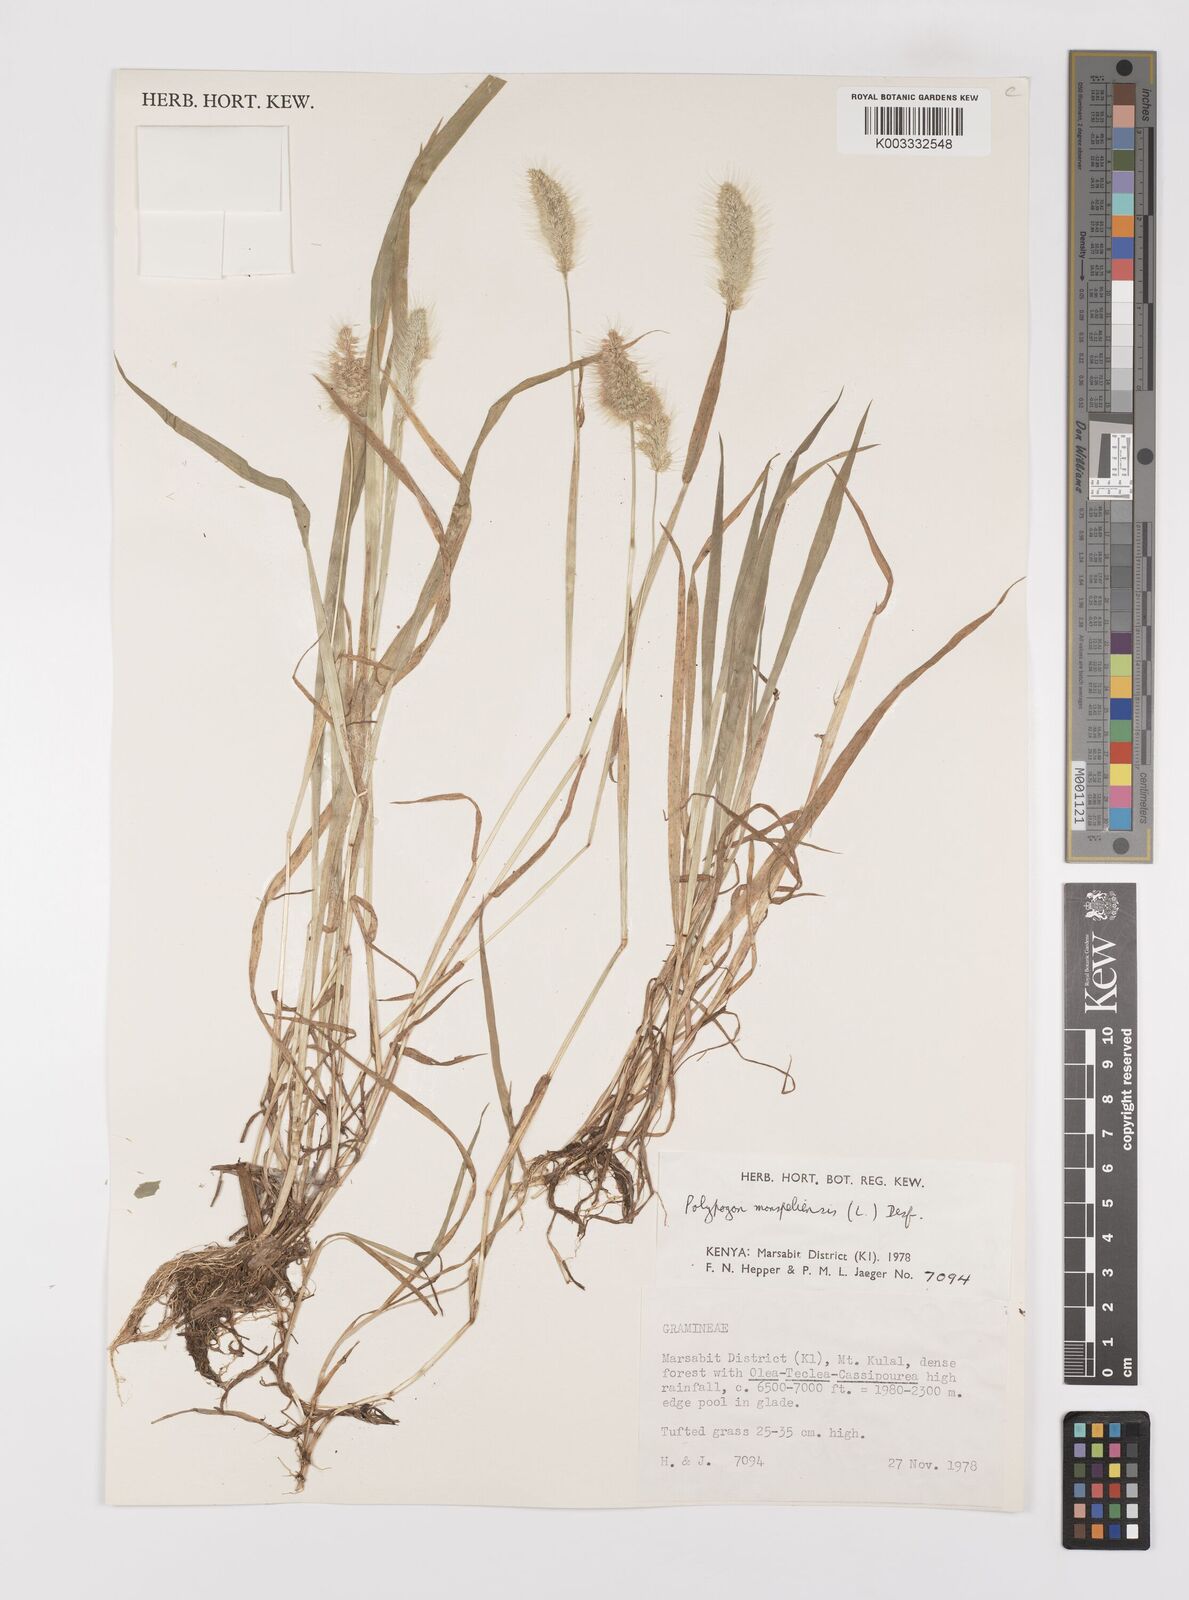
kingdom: Plantae
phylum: Tracheophyta
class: Liliopsida
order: Poales
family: Poaceae
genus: Polypogon
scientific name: Polypogon monspeliensis
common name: Annual rabbitsfoot grass
